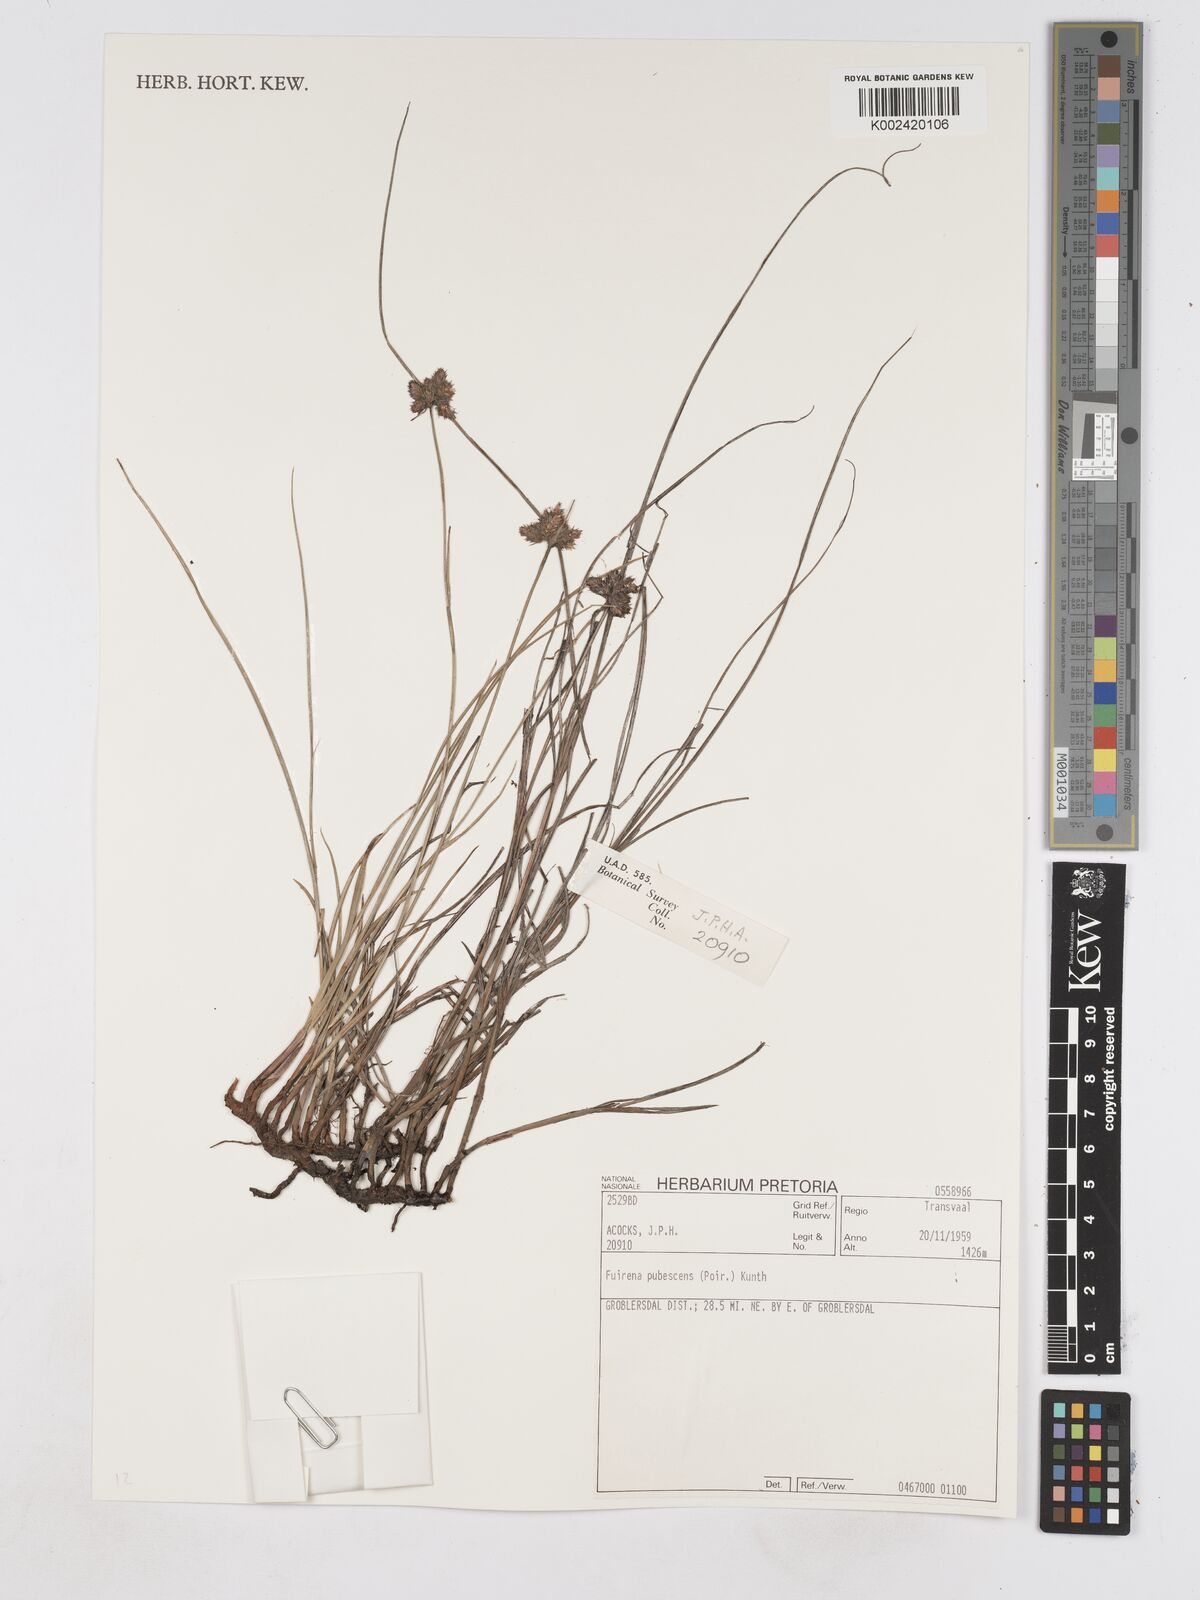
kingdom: Plantae
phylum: Tracheophyta
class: Liliopsida
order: Poales
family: Cyperaceae
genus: Fuirena
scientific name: Fuirena pubescens
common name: Hairy sedge
